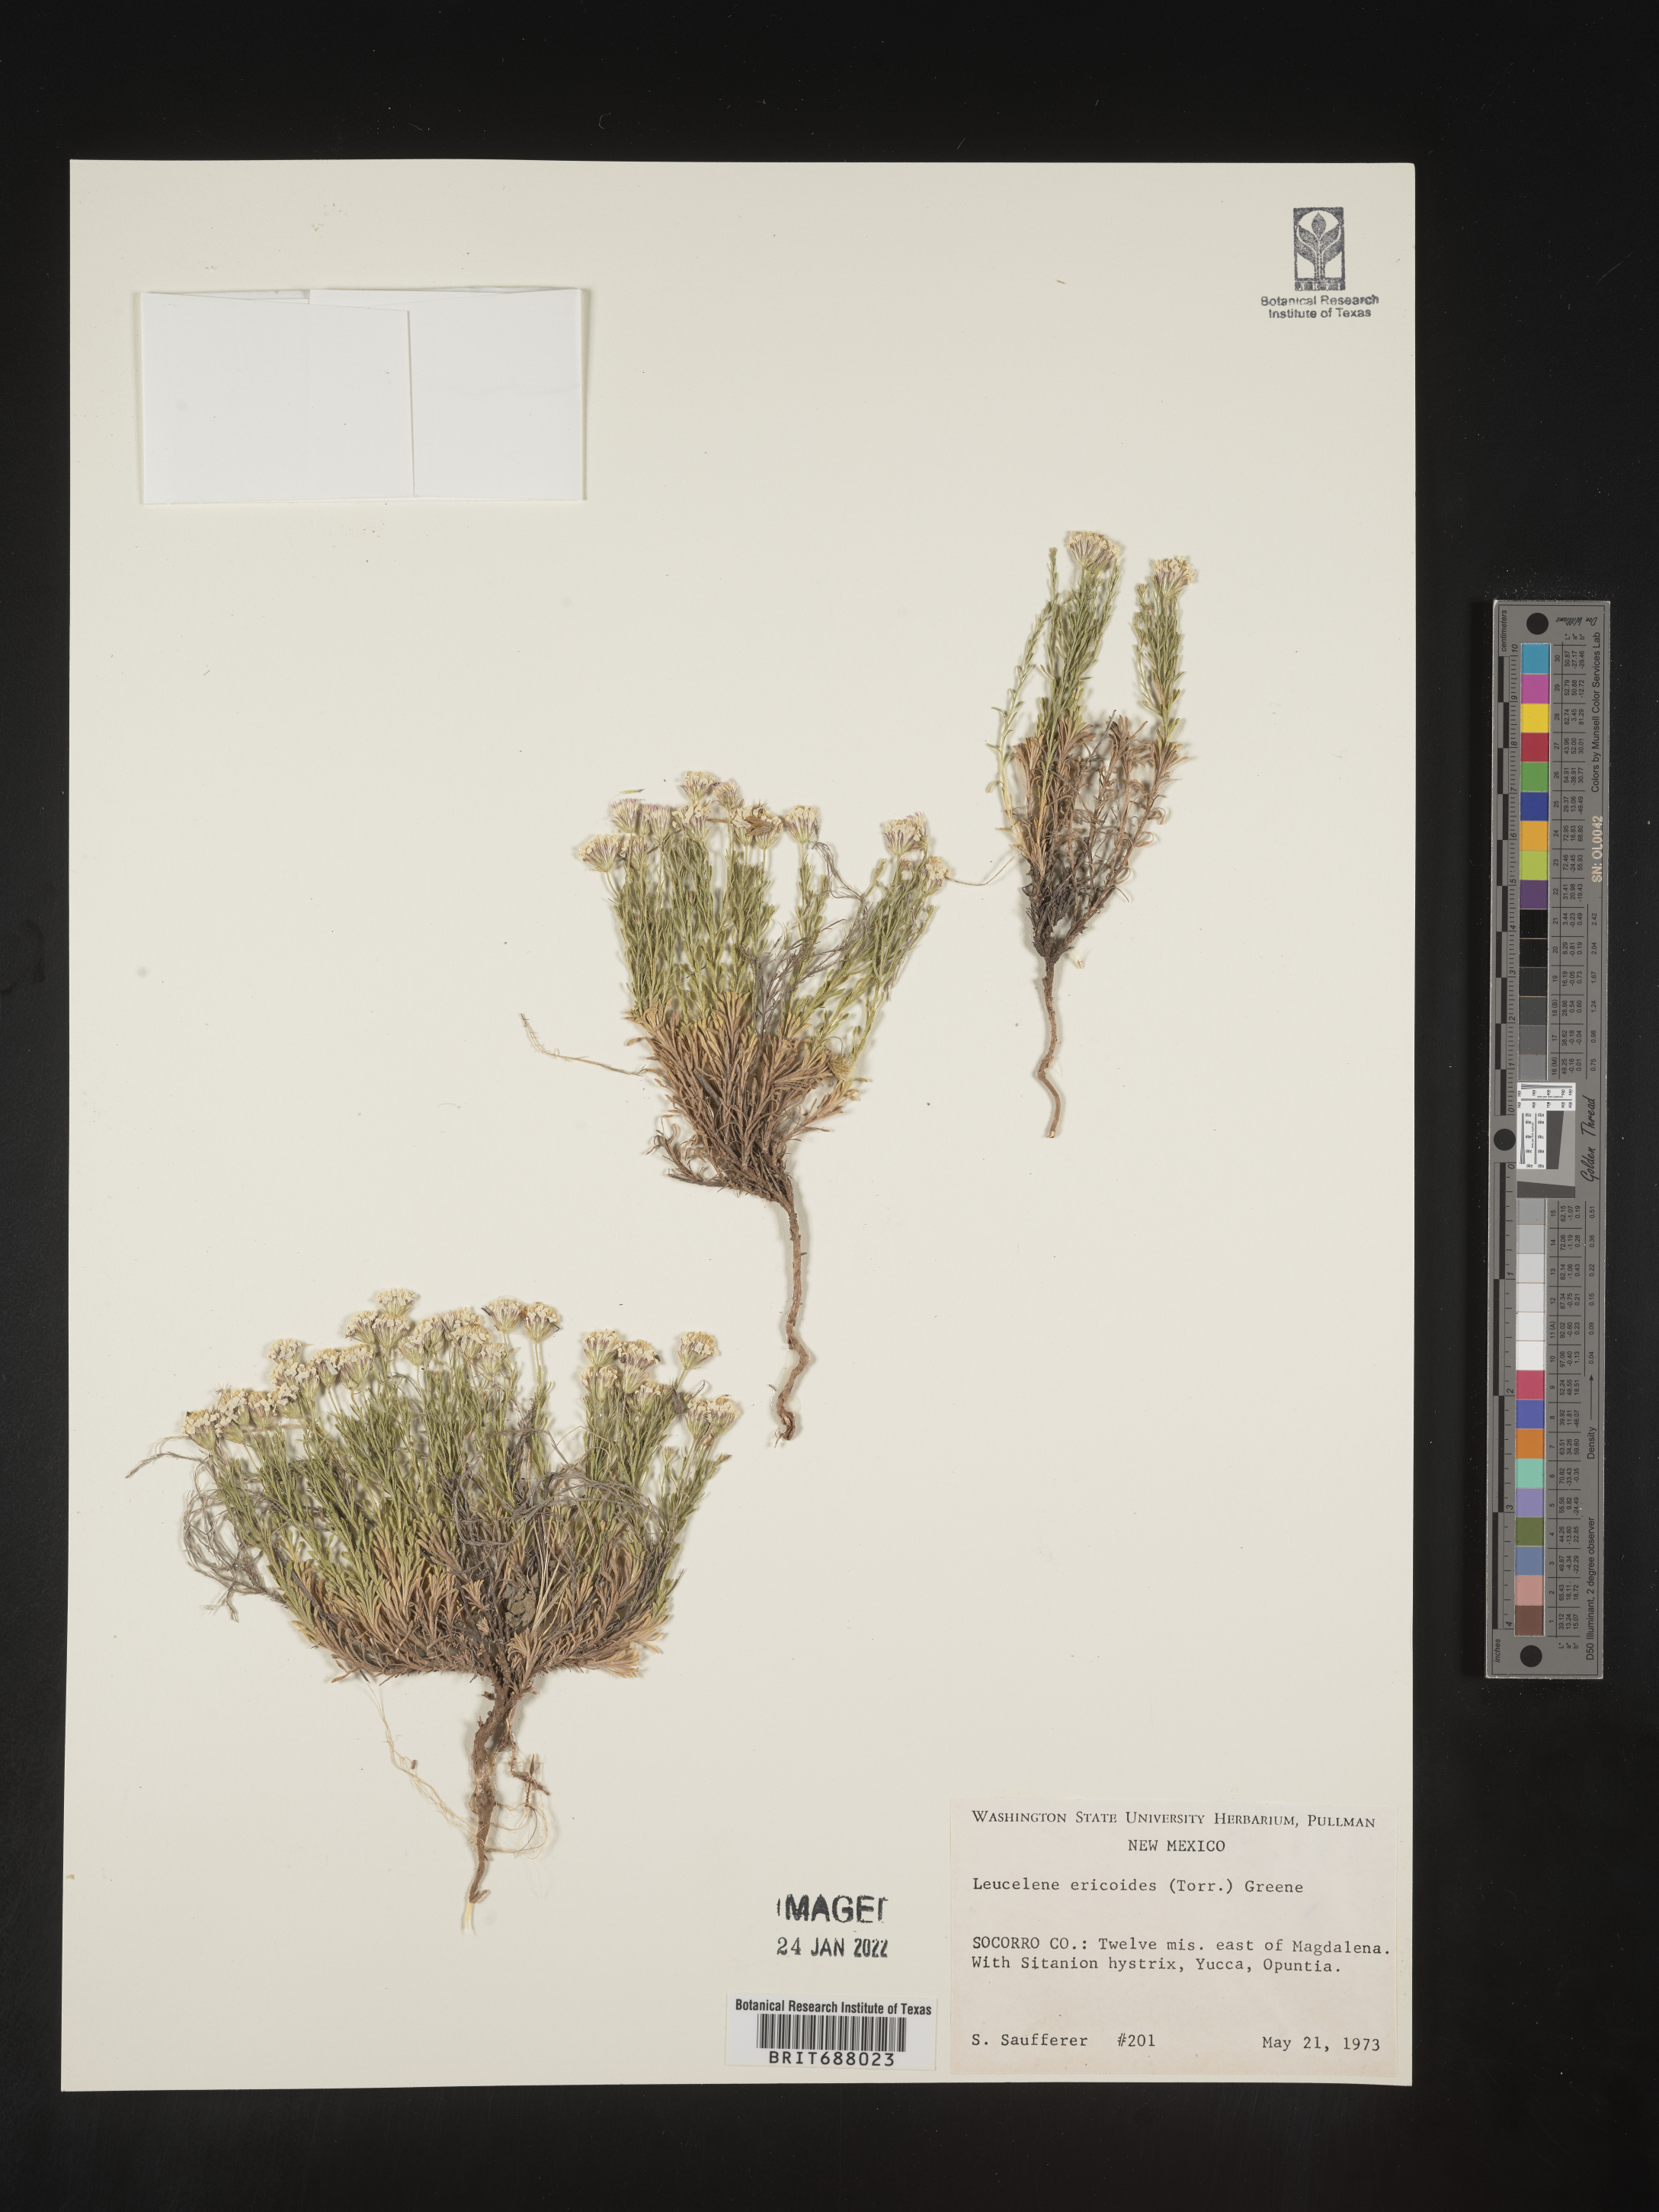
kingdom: Plantae
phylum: Tracheophyta
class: Magnoliopsida
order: Asterales
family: Asteraceae
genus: Chaetopappa
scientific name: Chaetopappa ericoides
